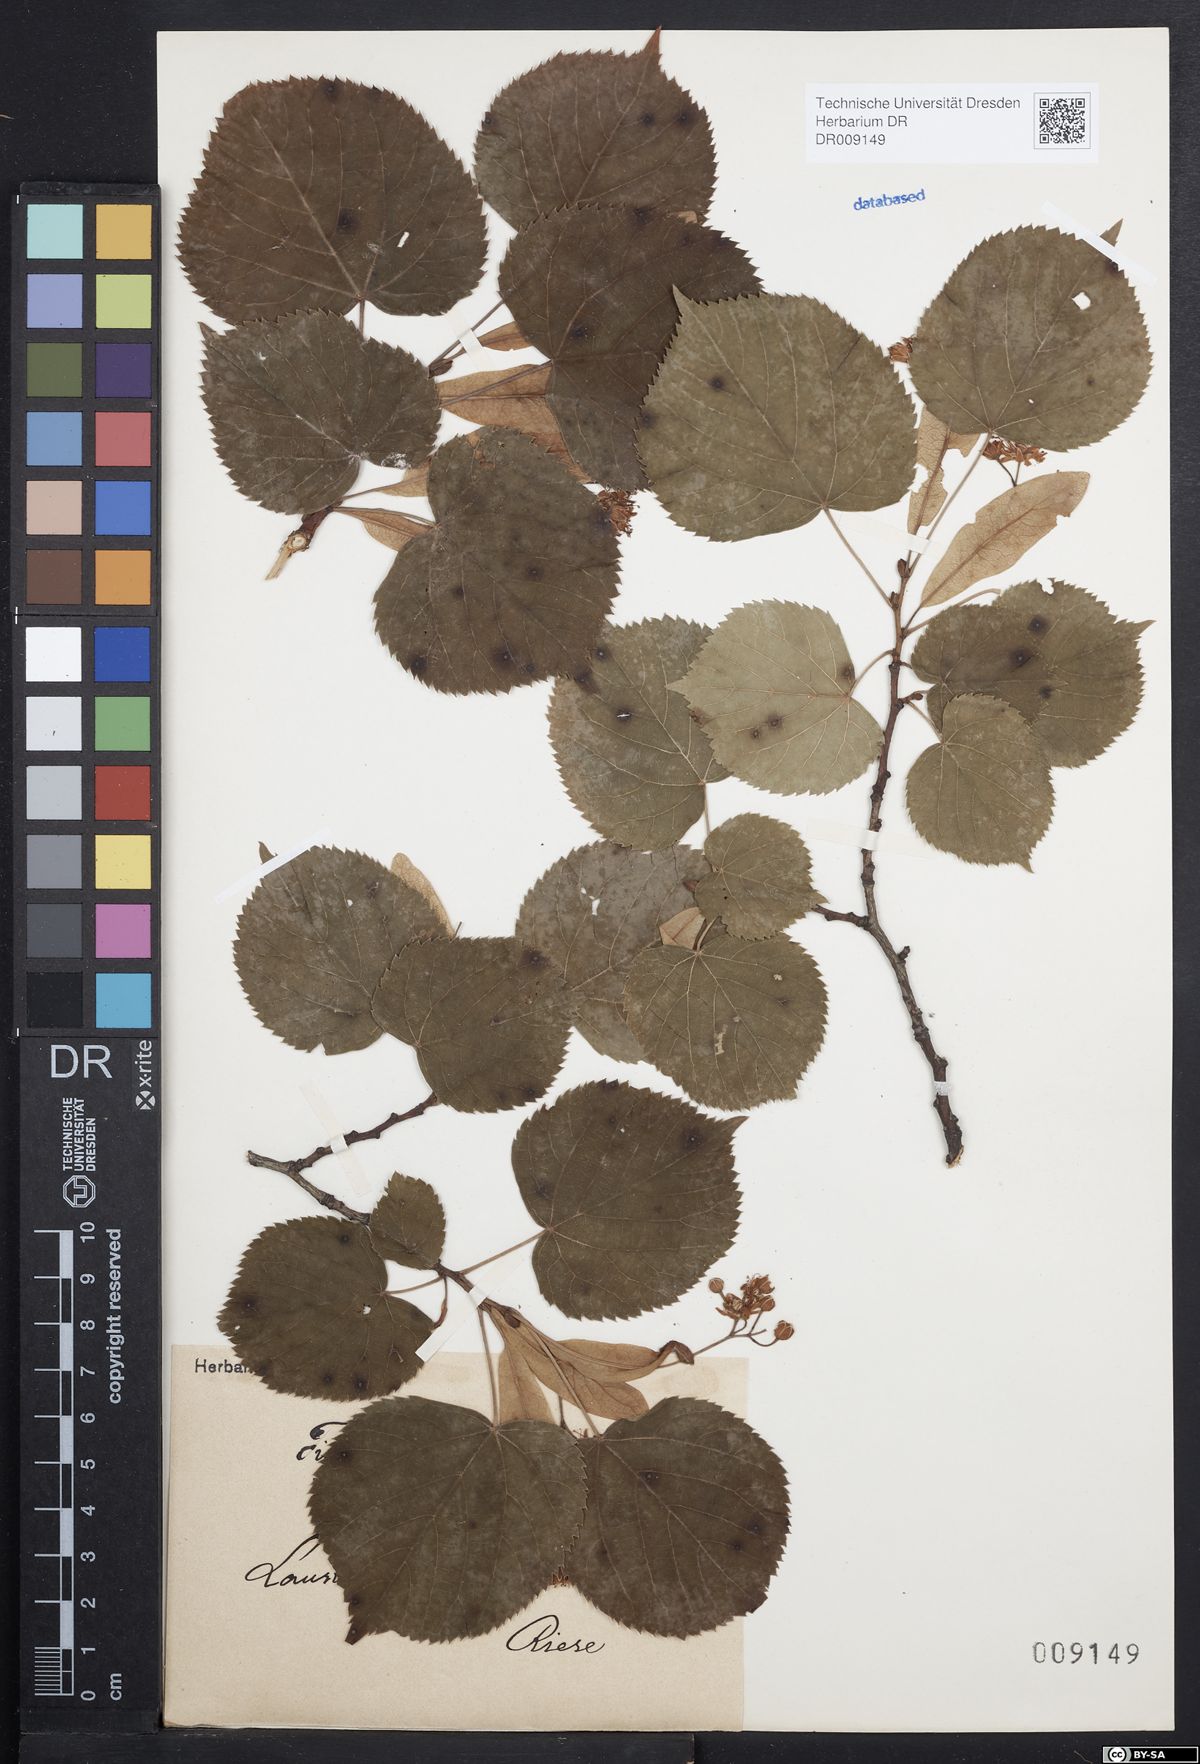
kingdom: Plantae
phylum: Tracheophyta
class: Magnoliopsida
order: Malvales
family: Malvaceae
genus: Tilia
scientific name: Tilia cordata
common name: Small-leaved lime
